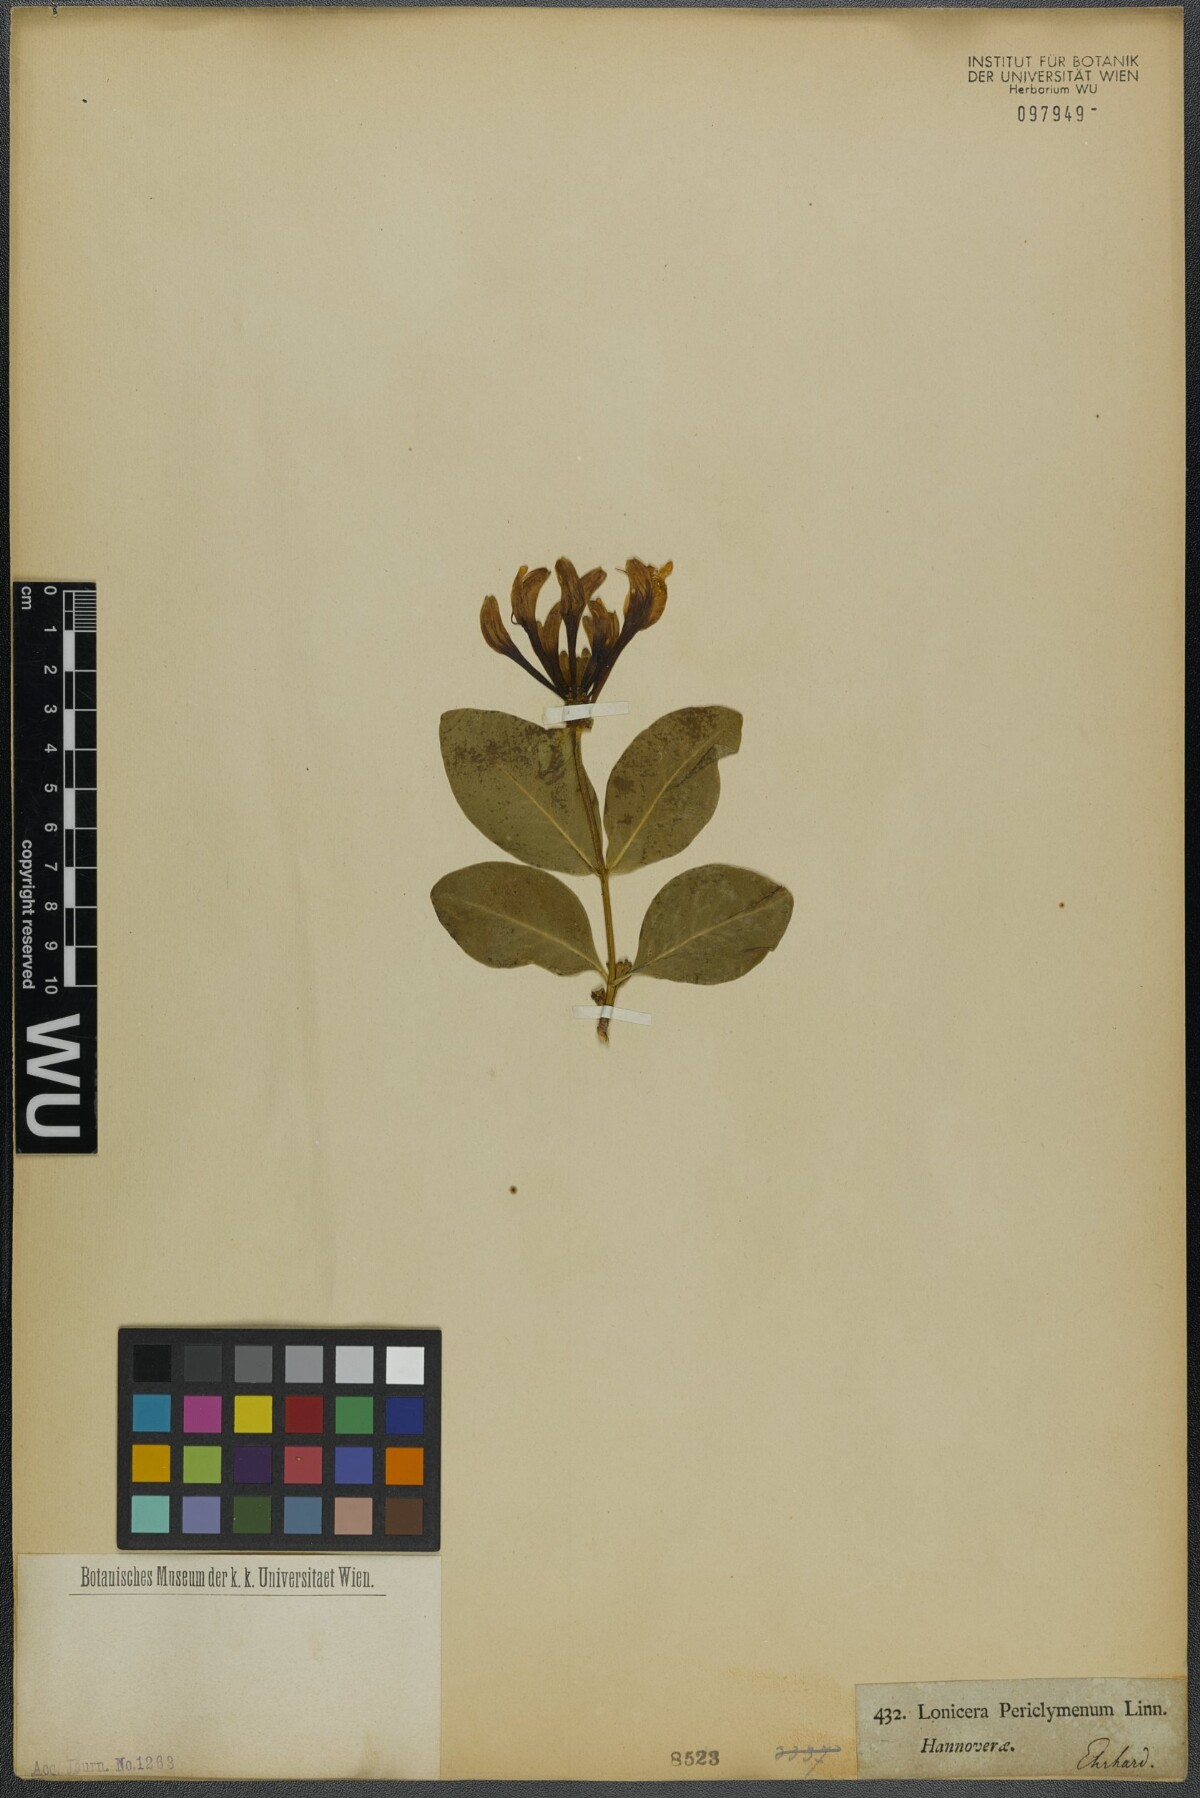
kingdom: Plantae
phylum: Tracheophyta
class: Magnoliopsida
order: Dipsacales
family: Caprifoliaceae
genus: Lonicera
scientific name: Lonicera periclymenum
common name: European honeysuckle
